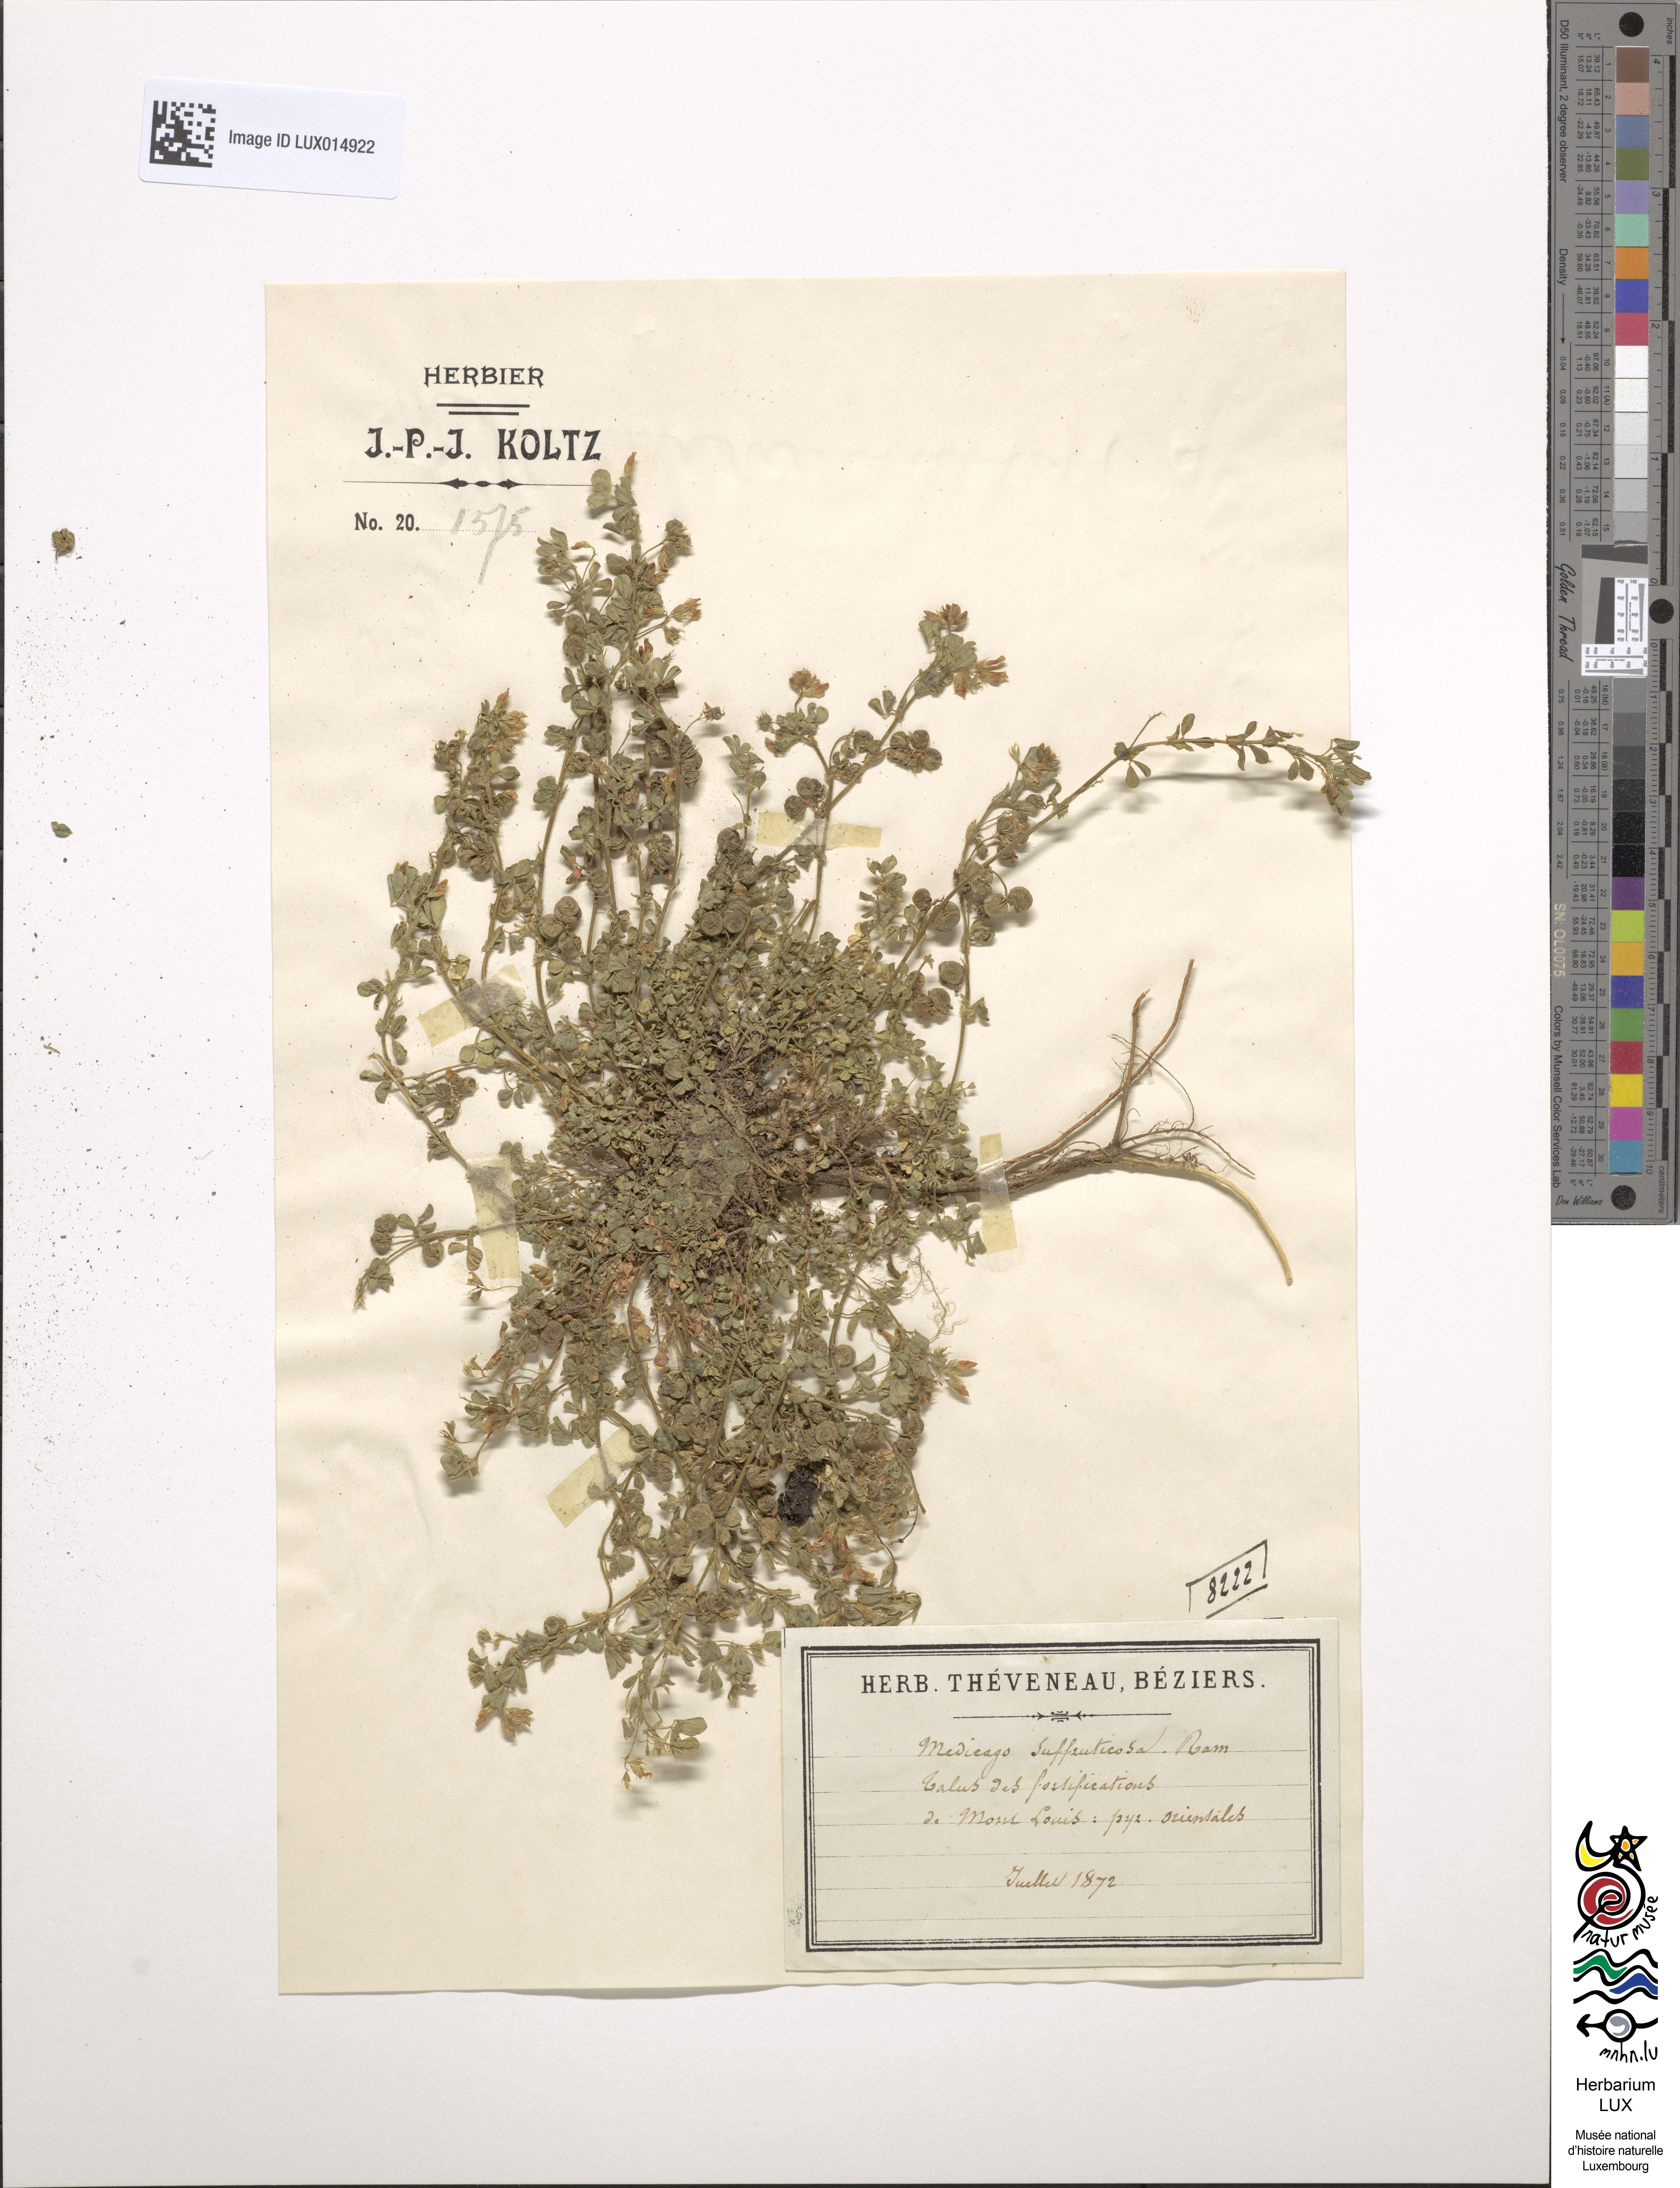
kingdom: Plantae
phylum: Tracheophyta
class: Magnoliopsida
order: Fabales
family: Fabaceae
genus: Medicago
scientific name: Medicago suffruticosa
